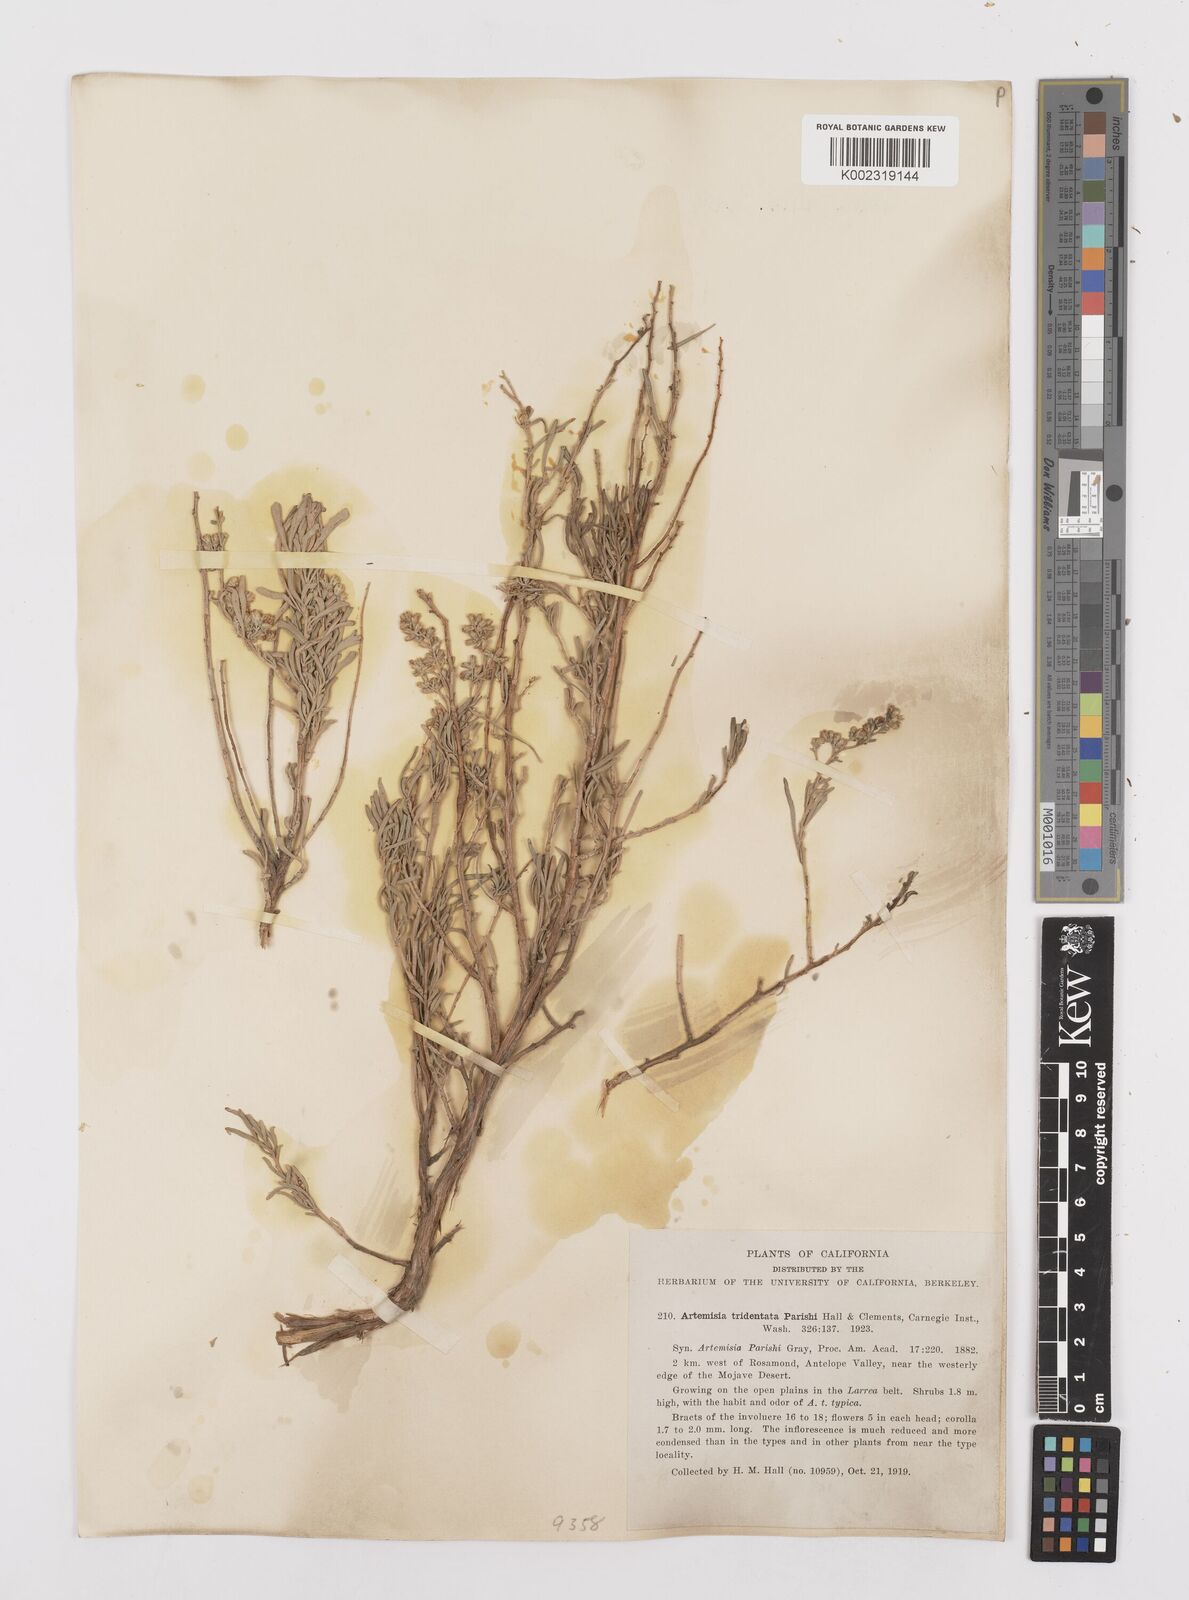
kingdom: Plantae
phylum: Tracheophyta
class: Magnoliopsida
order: Asterales
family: Asteraceae
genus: Artemisia
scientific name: Artemisia tridentata
